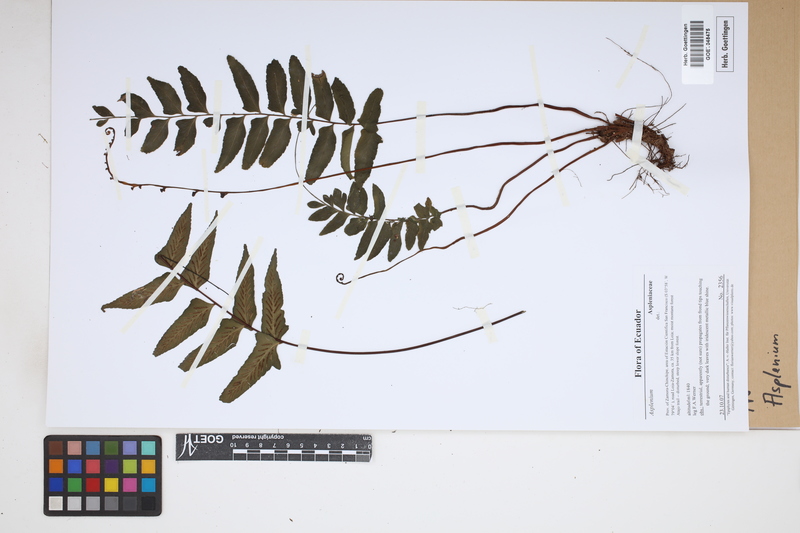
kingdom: Plantae
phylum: Tracheophyta
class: Polypodiopsida
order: Polypodiales
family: Aspleniaceae
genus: Asplenium
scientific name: Asplenium
